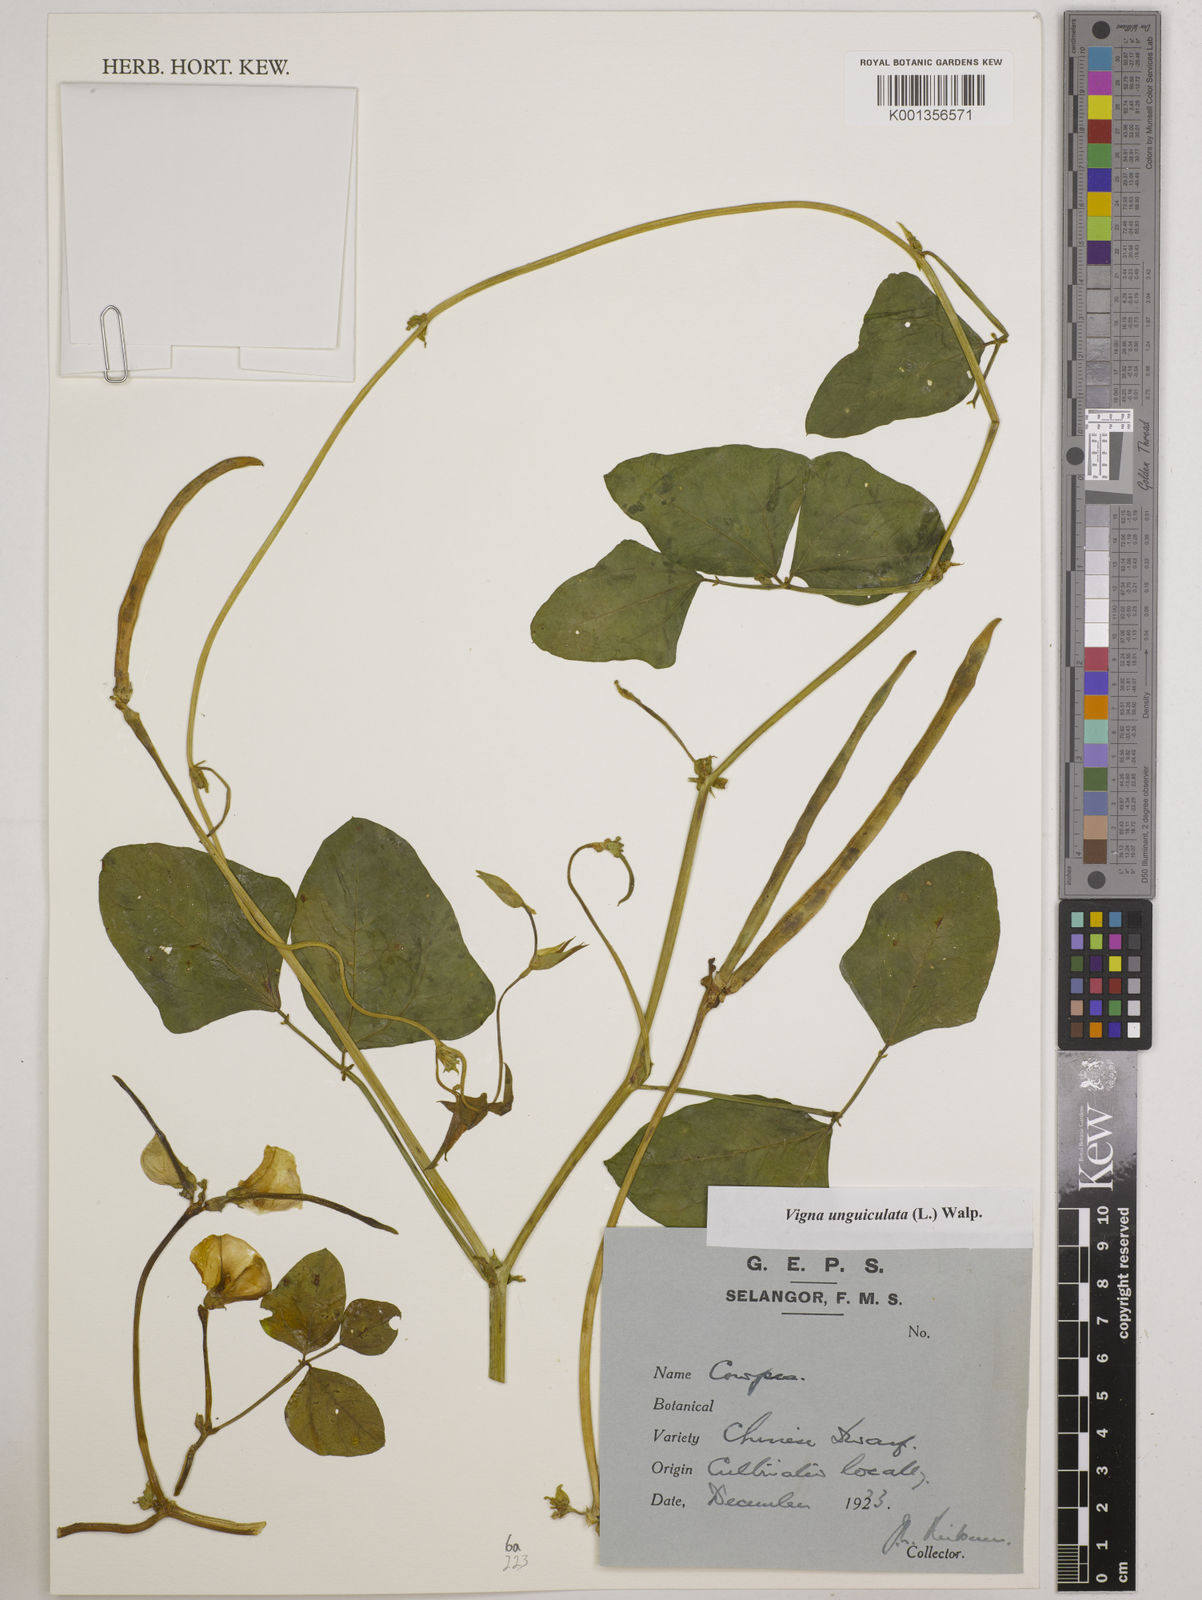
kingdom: Plantae
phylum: Tracheophyta
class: Magnoliopsida
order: Fabales
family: Fabaceae
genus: Vigna
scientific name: Vigna unguiculata
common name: Cowpea
